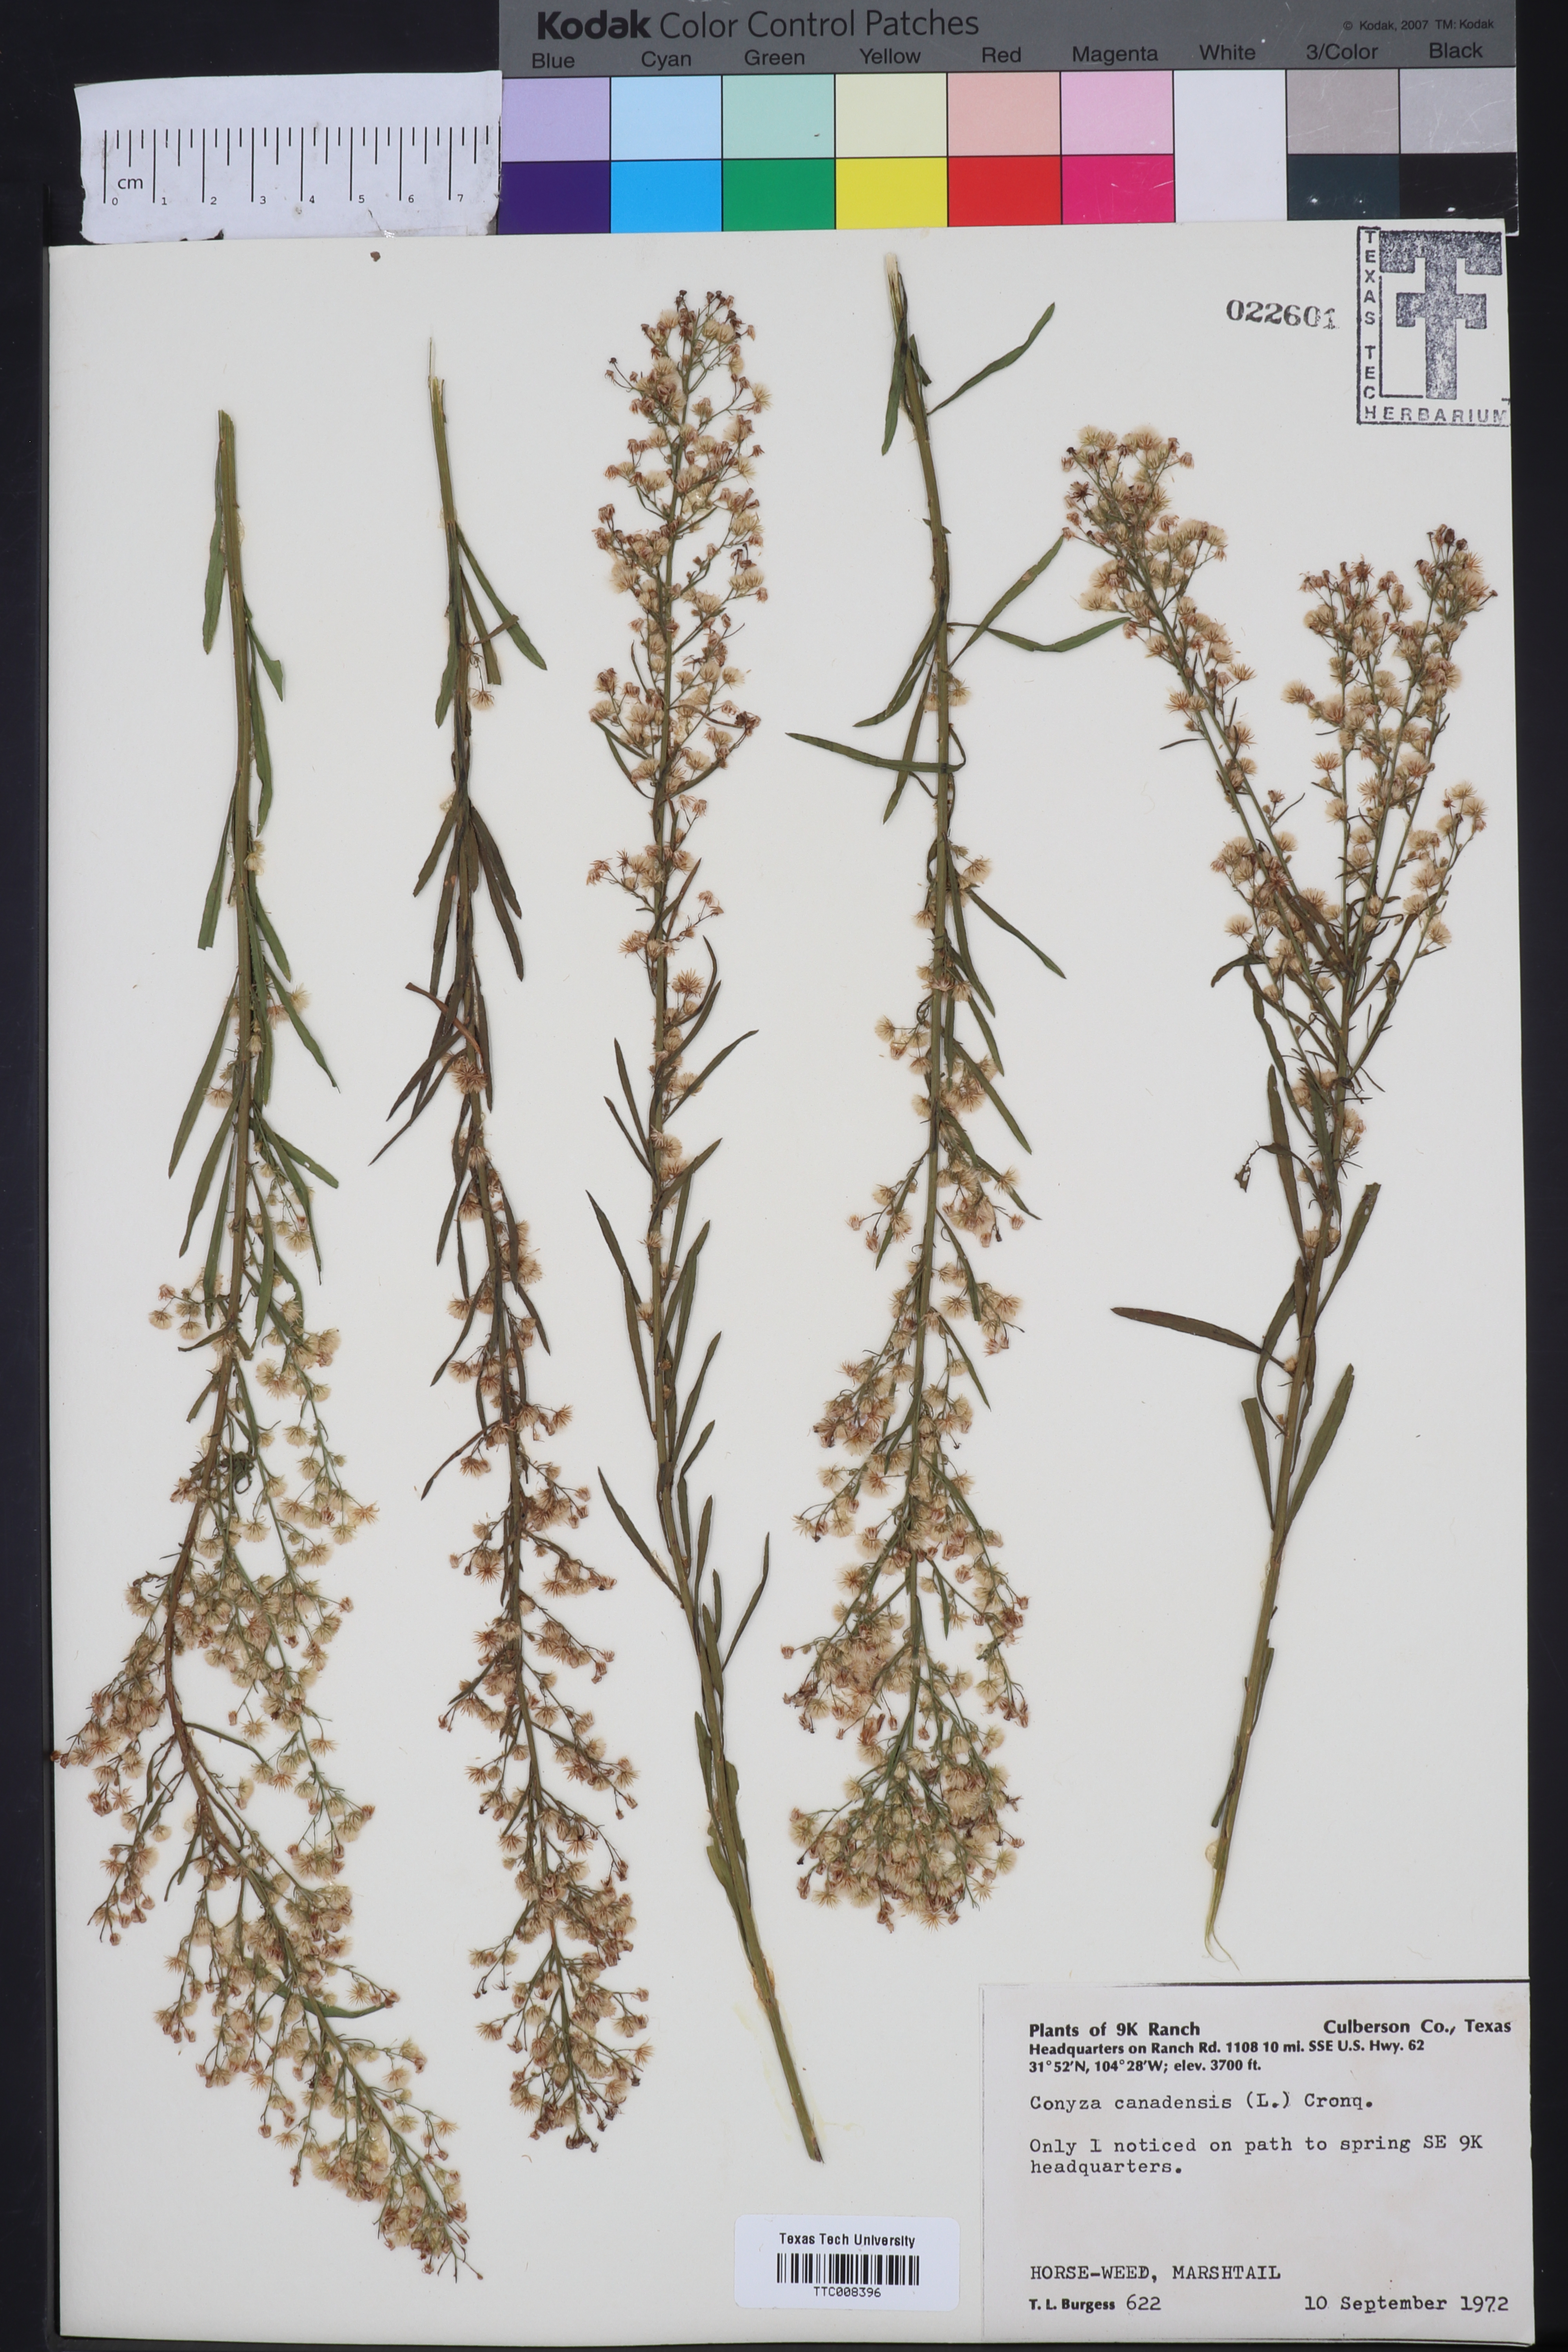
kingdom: Plantae
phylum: Tracheophyta
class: Magnoliopsida
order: Asterales
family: Asteraceae
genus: Erigeron
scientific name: Erigeron canadensis
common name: Canadian fleabane
